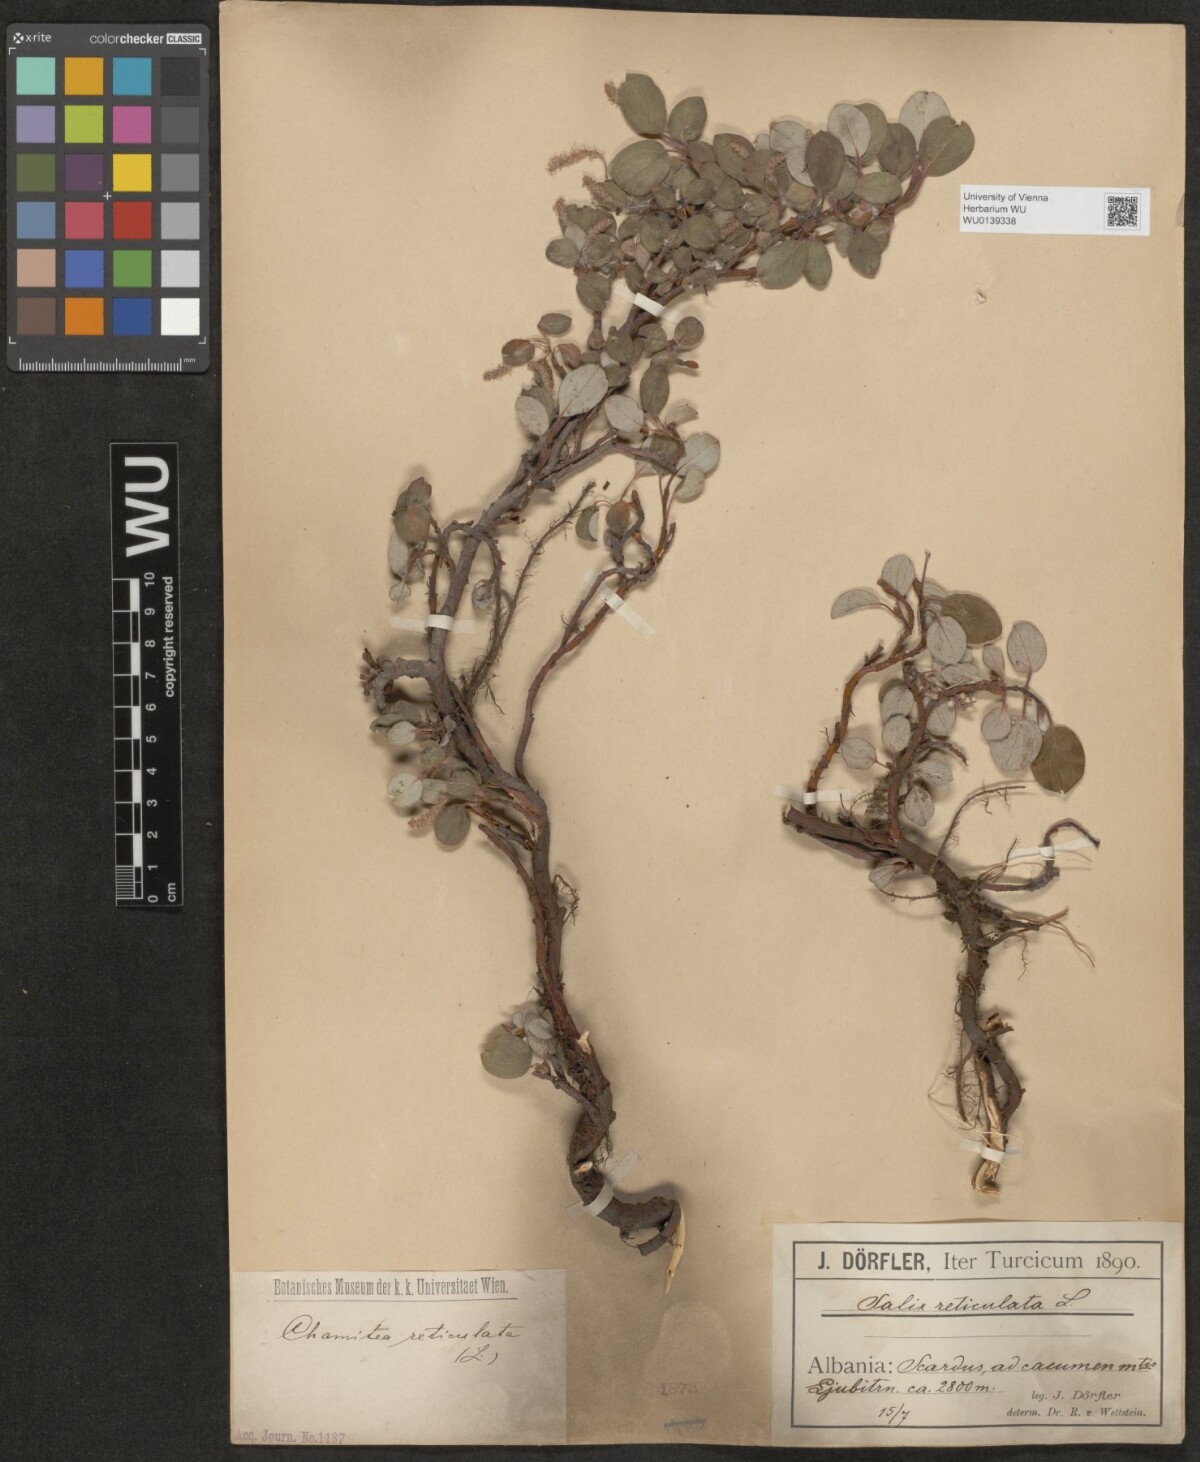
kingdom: Plantae
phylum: Tracheophyta
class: Magnoliopsida
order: Malpighiales
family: Salicaceae
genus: Salix
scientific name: Salix reticulata
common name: Net-leaved willow
